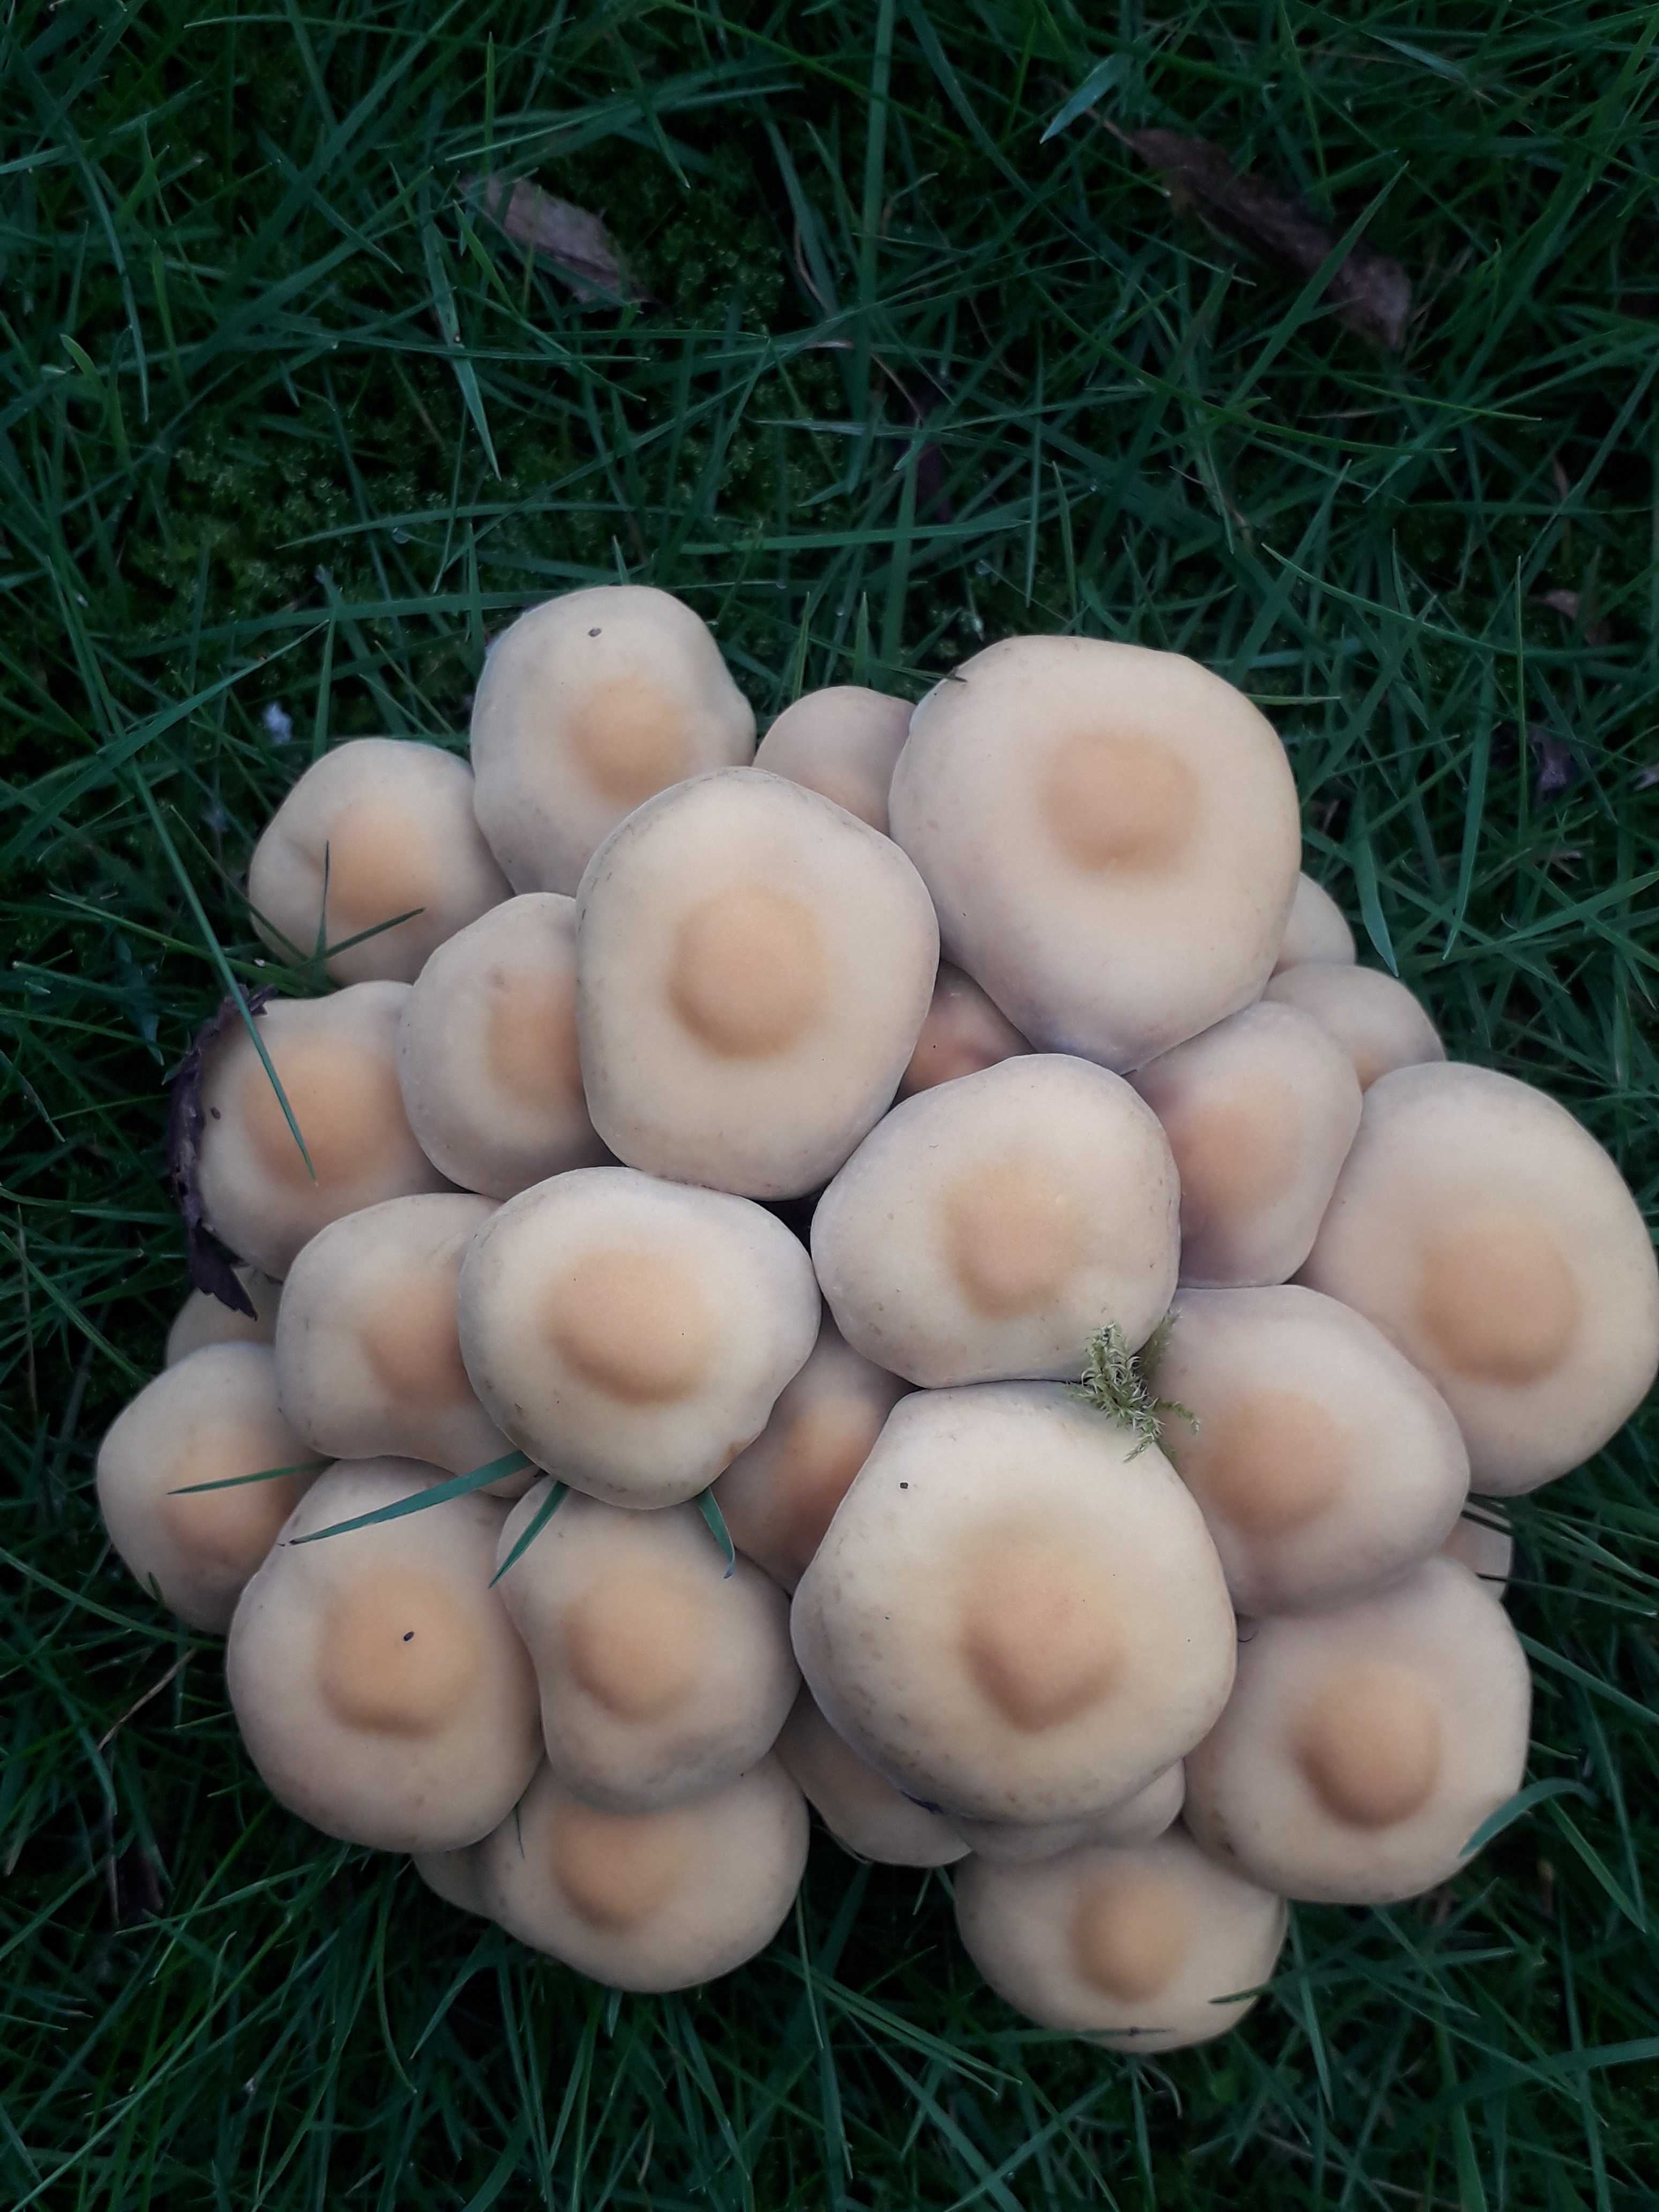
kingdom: Fungi
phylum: Basidiomycota
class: Agaricomycetes
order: Agaricales
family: Strophariaceae
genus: Hypholoma
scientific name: Hypholoma
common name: svovlhat
